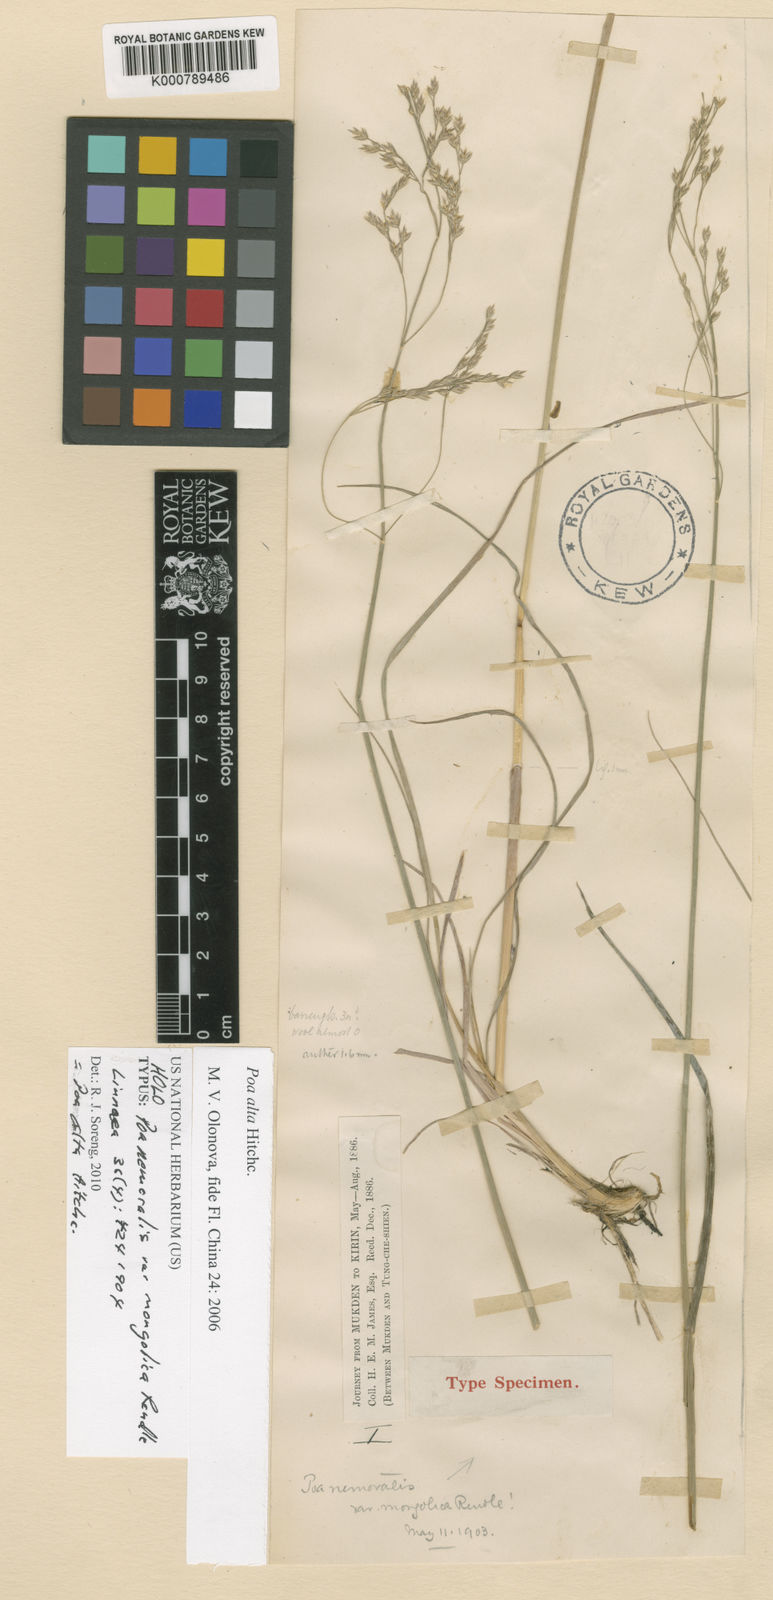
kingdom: Plantae
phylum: Tracheophyta
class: Liliopsida
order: Poales
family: Poaceae
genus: Poa
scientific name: Poa nemoralis
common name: Wood bluegrass
